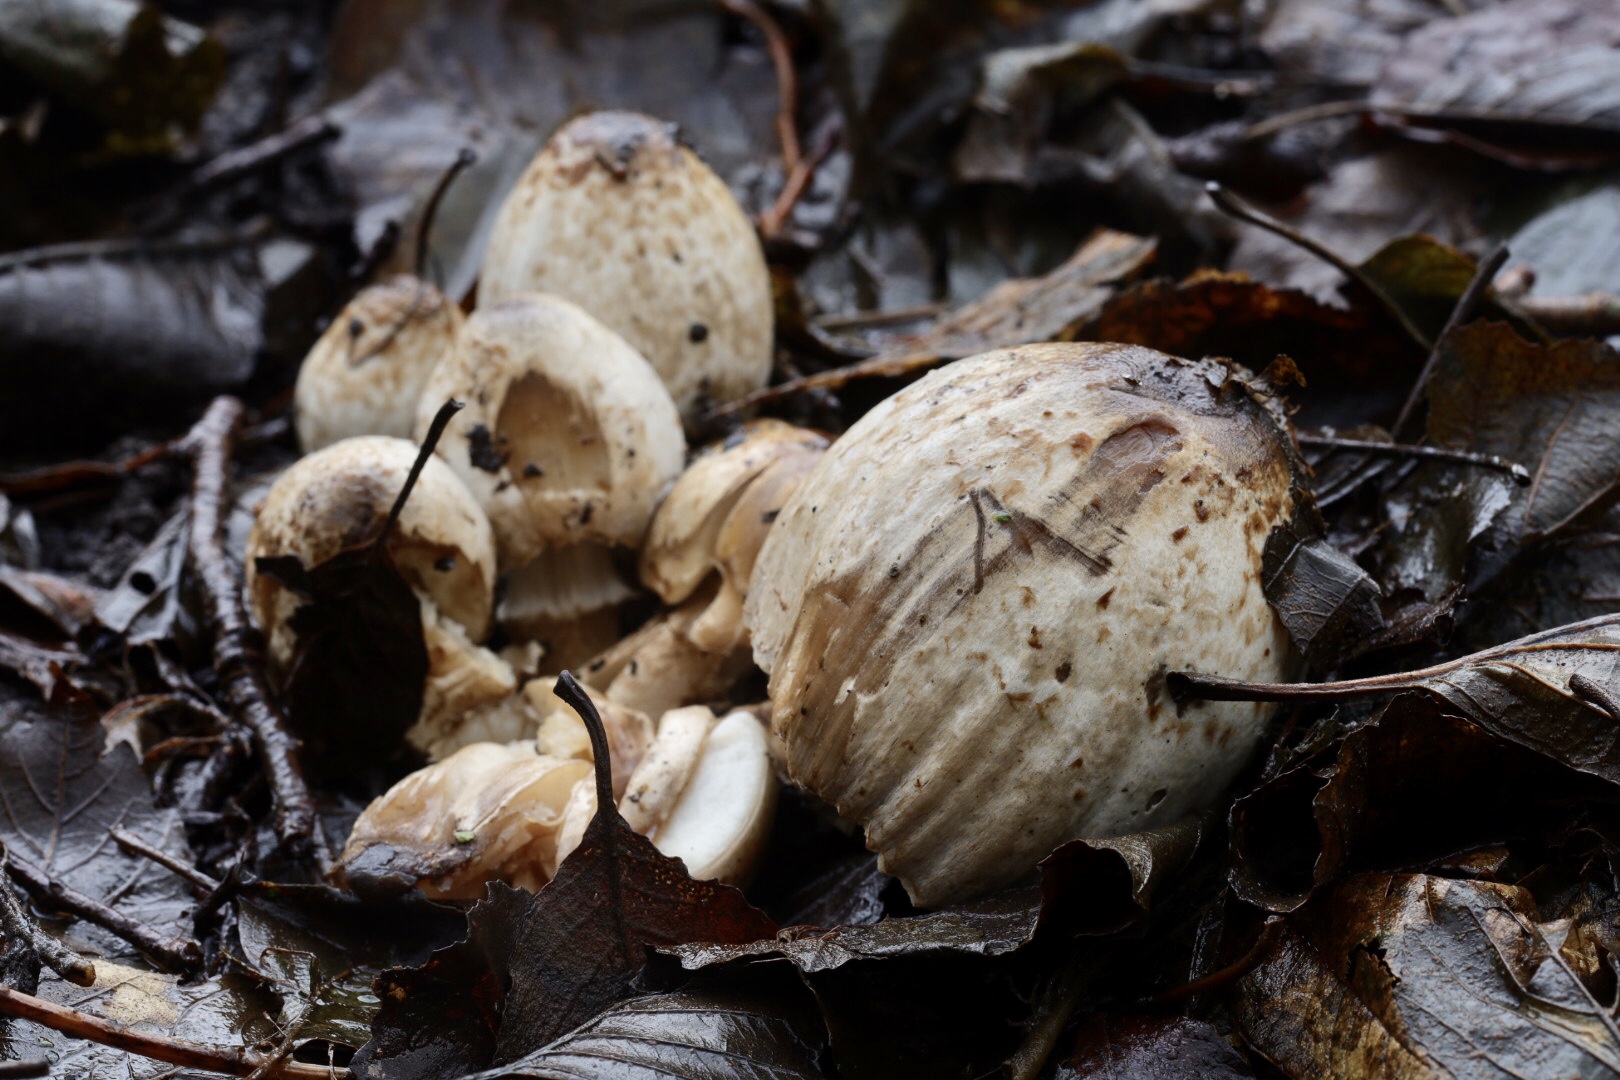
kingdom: Fungi
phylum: Basidiomycota
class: Agaricomycetes
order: Agaricales
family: Psathyrellaceae
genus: Coprinopsis
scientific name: Coprinopsis romagnesiana
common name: brunskællet blækhat
